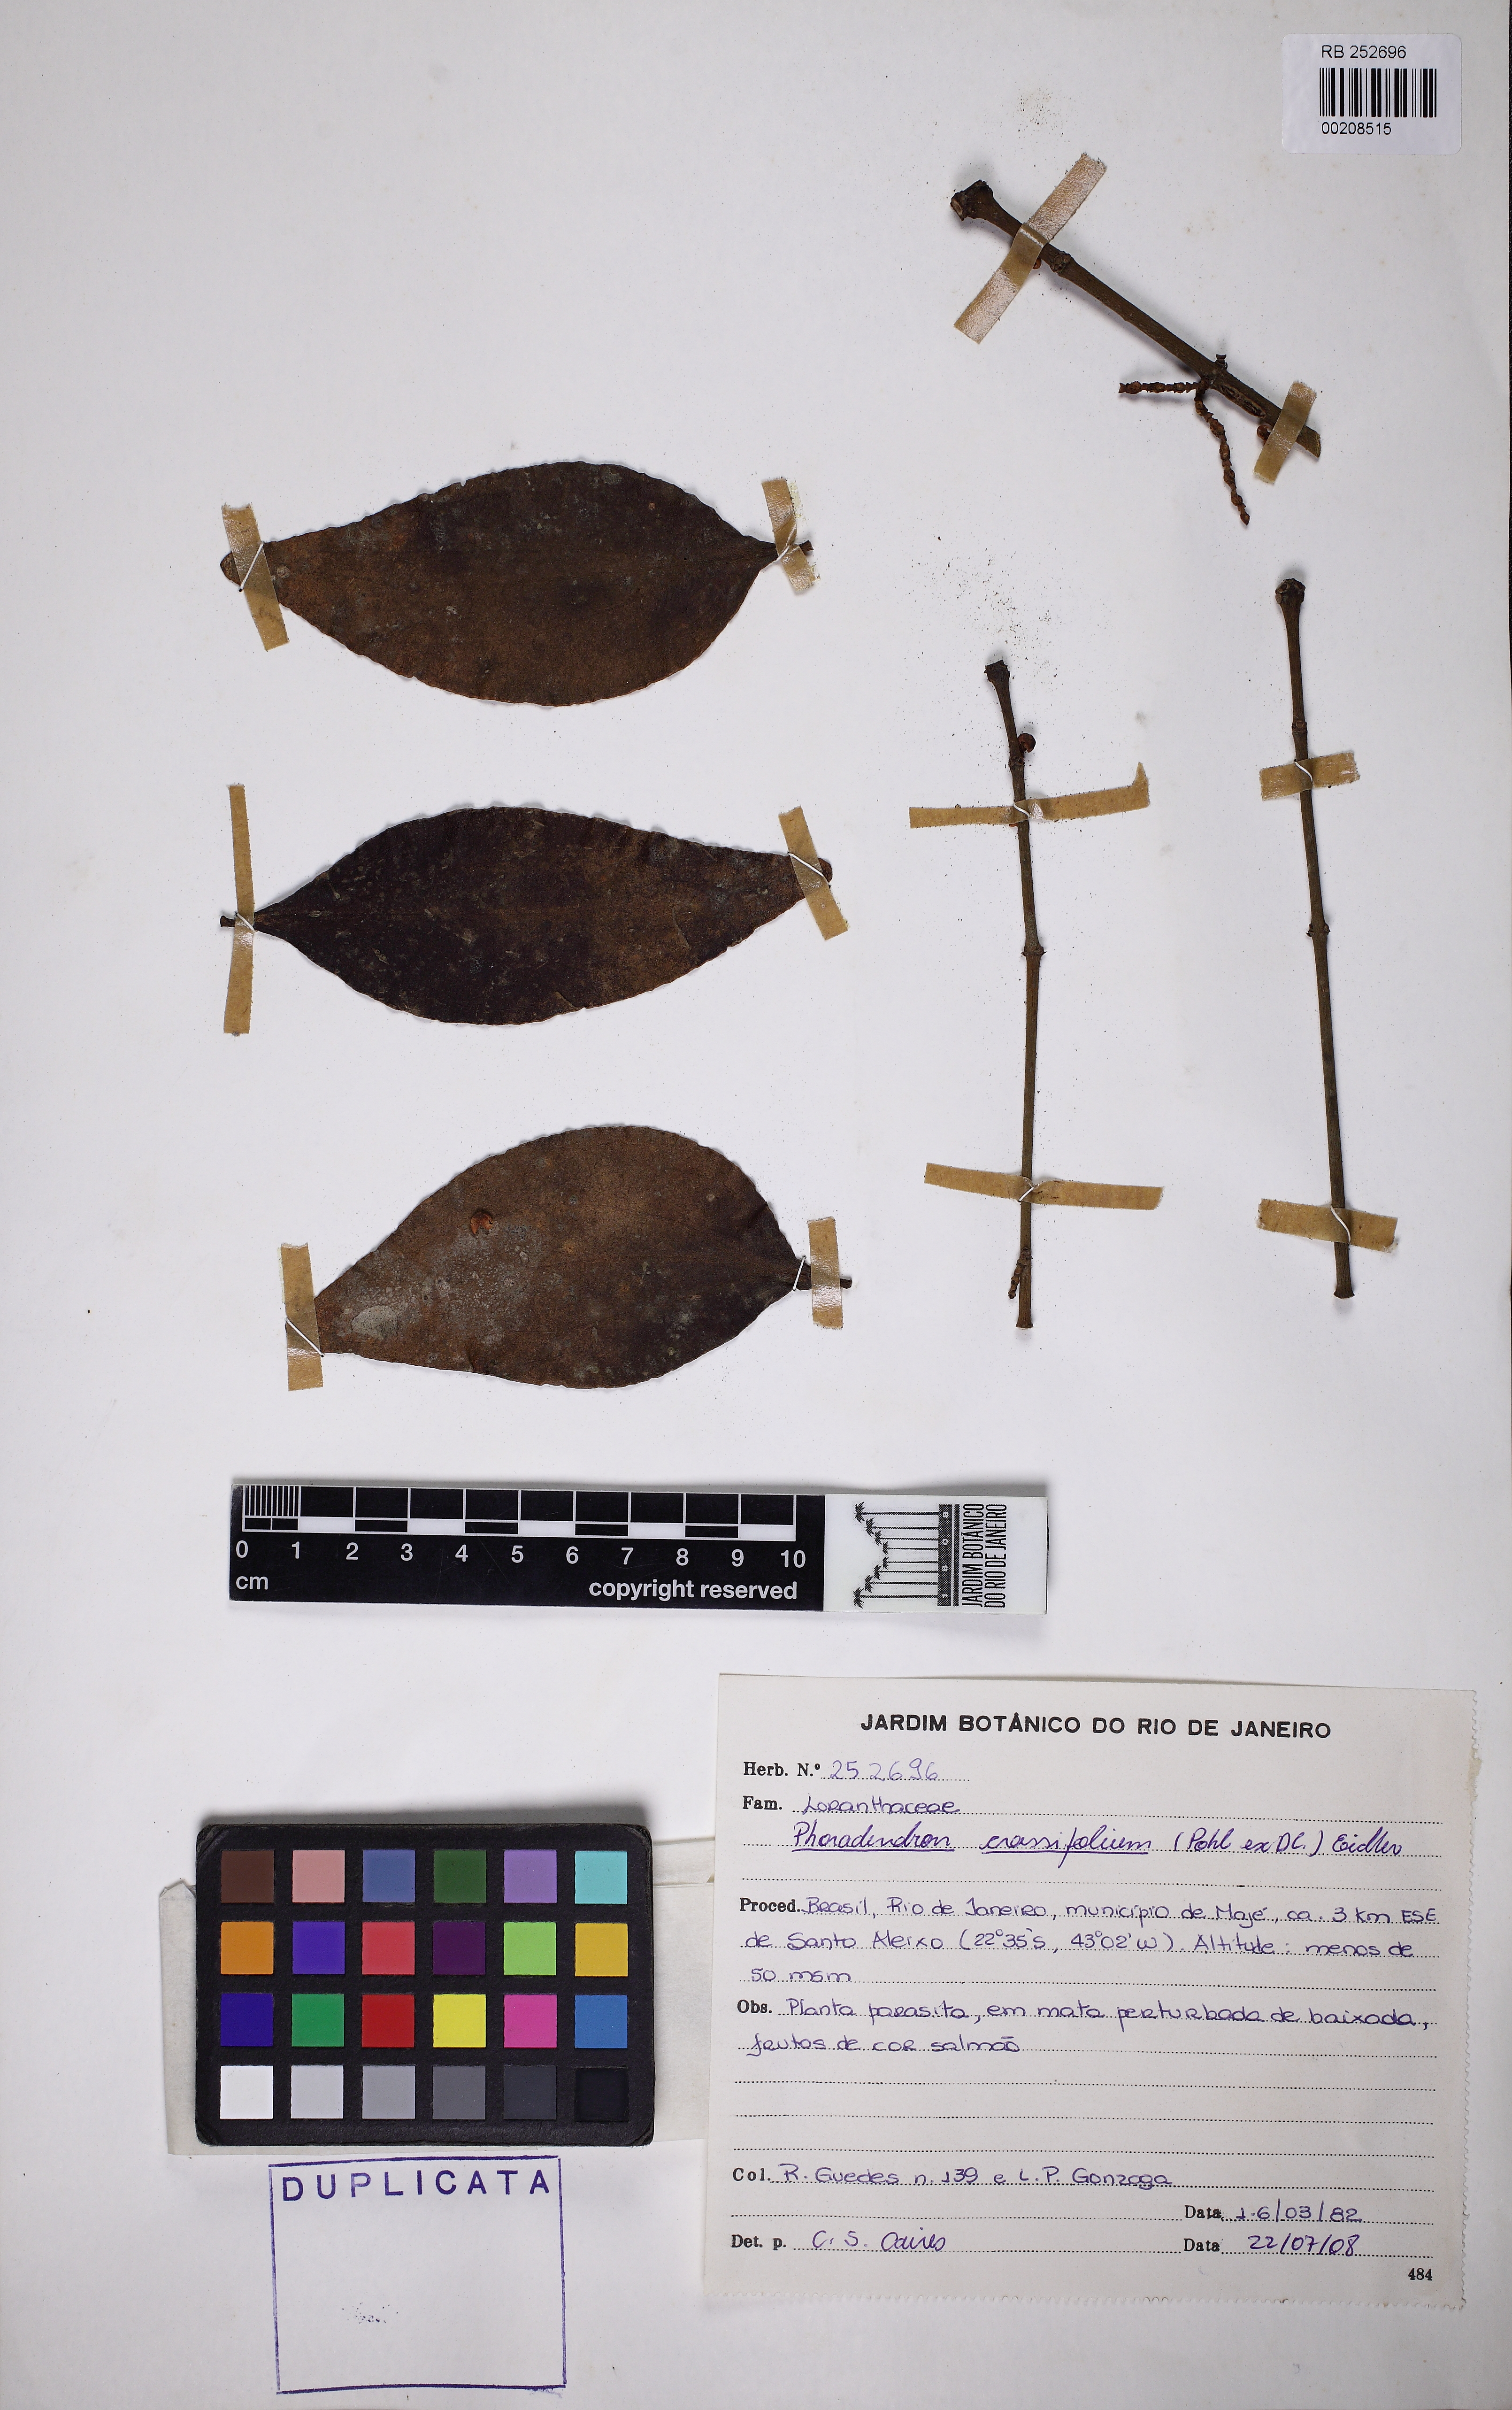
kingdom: Plantae
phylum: Tracheophyta
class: Magnoliopsida
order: Santalales
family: Viscaceae
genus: Phoradendron
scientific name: Phoradendron crassifolium
